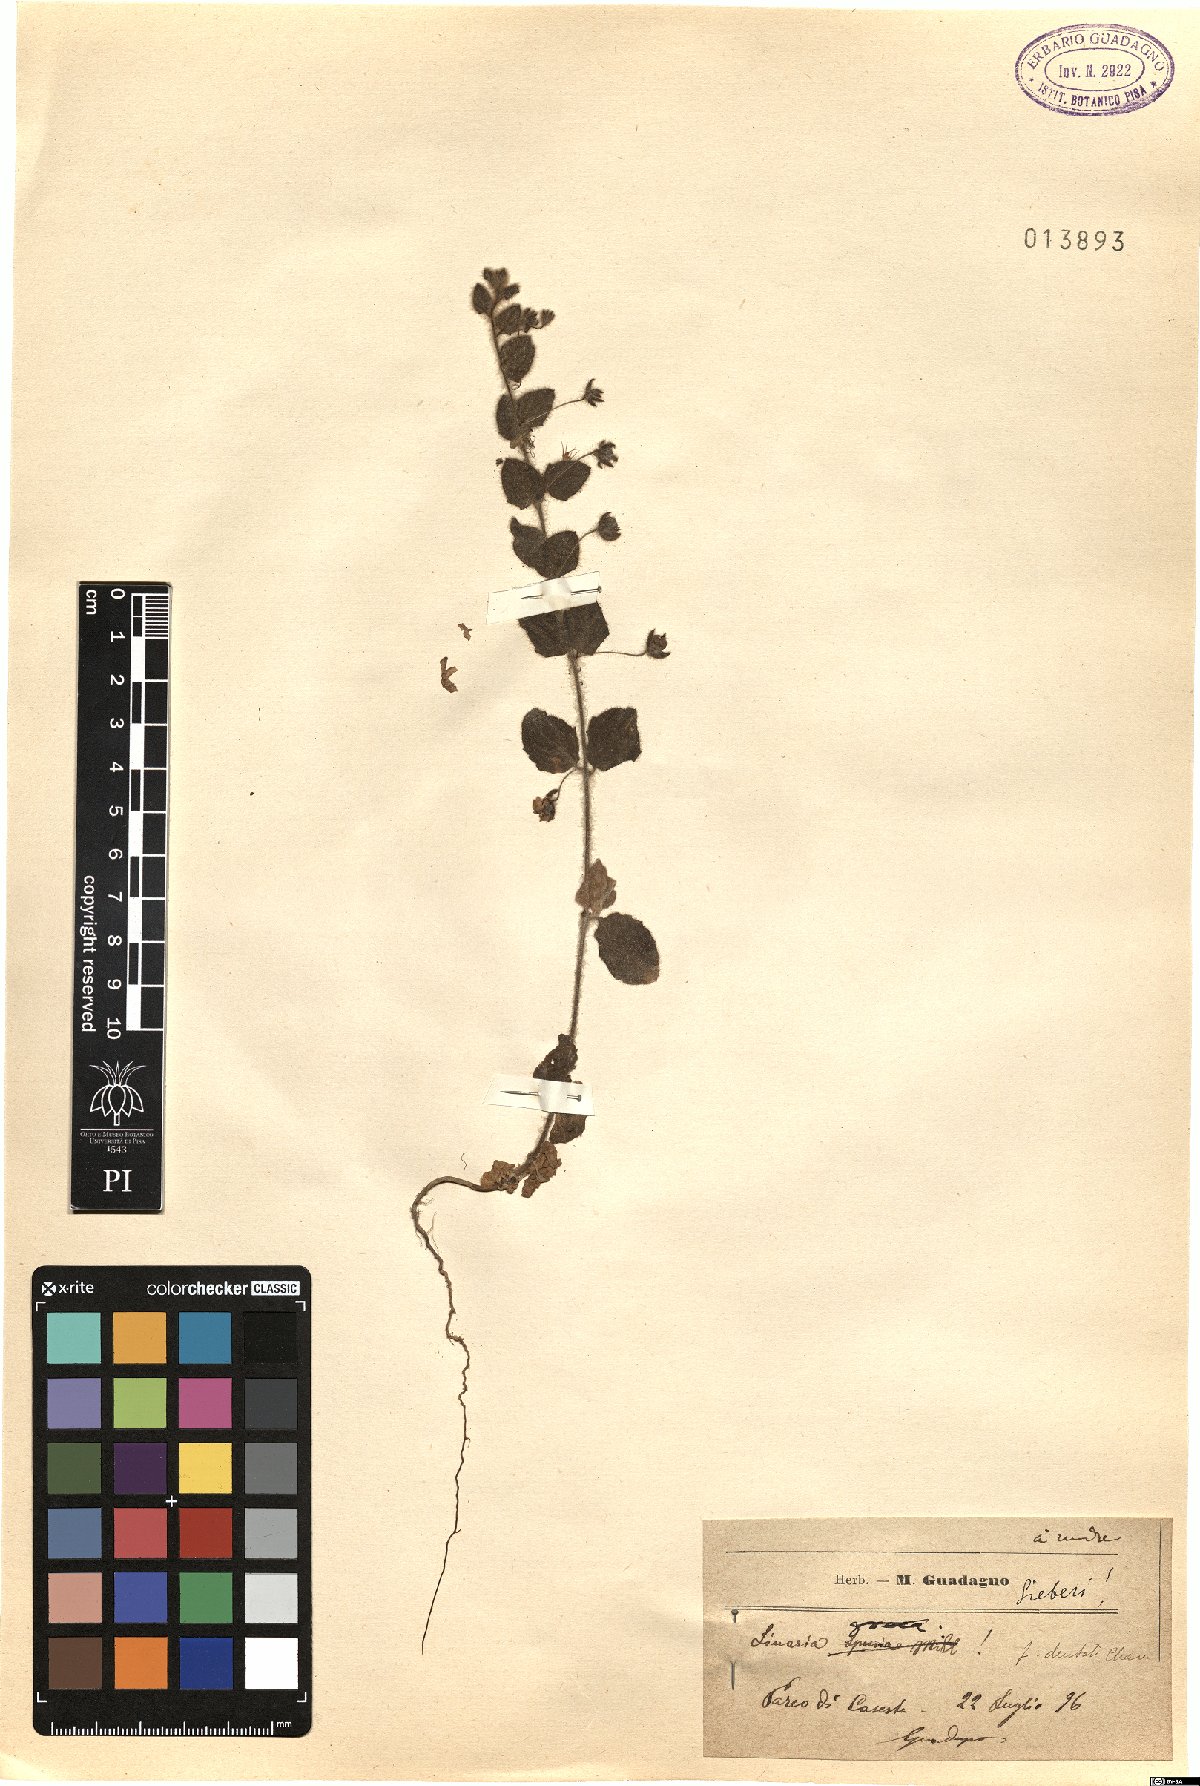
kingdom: Plantae
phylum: Tracheophyta
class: Magnoliopsida
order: Lamiales
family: Plantaginaceae
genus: Kickxia
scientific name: Kickxia commutata
